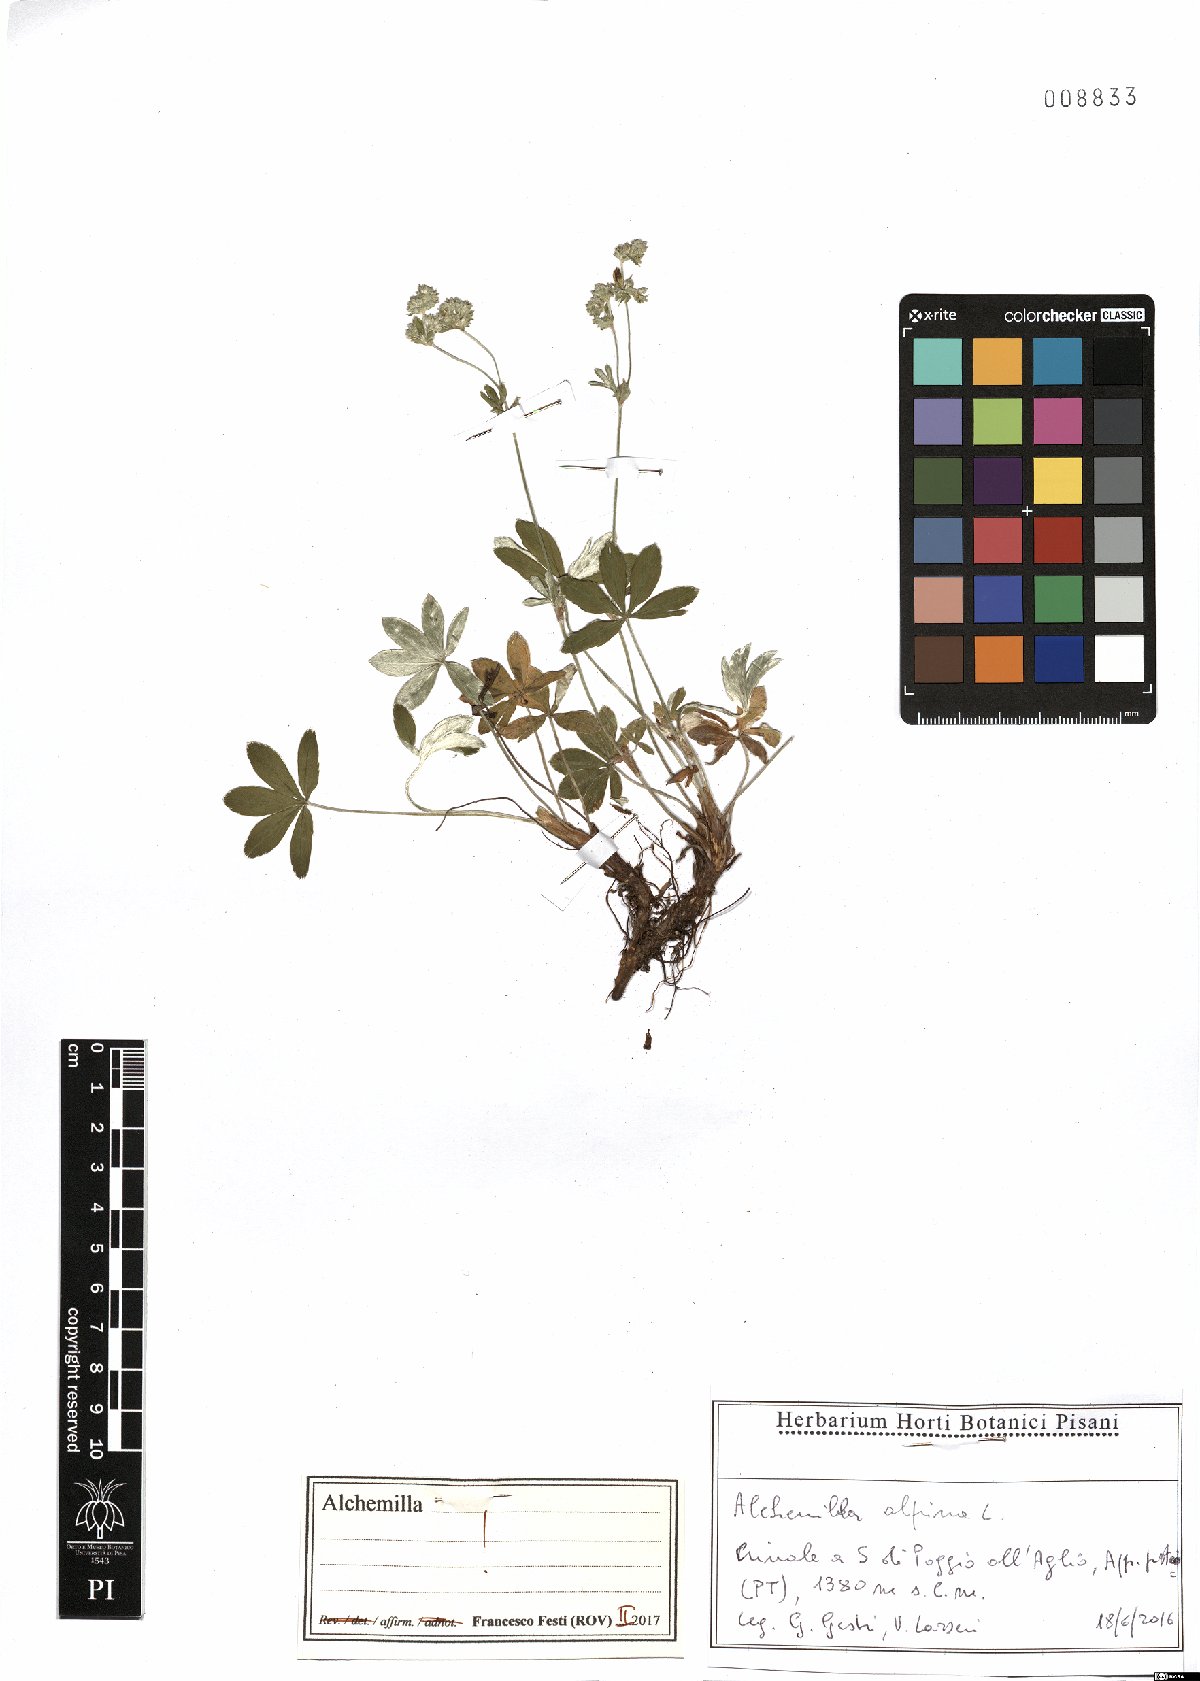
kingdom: Plantae
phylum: Tracheophyta
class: Magnoliopsida
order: Rosales
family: Rosaceae
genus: Alchemilla
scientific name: Alchemilla alpina
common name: Alpine lady's-mantle
